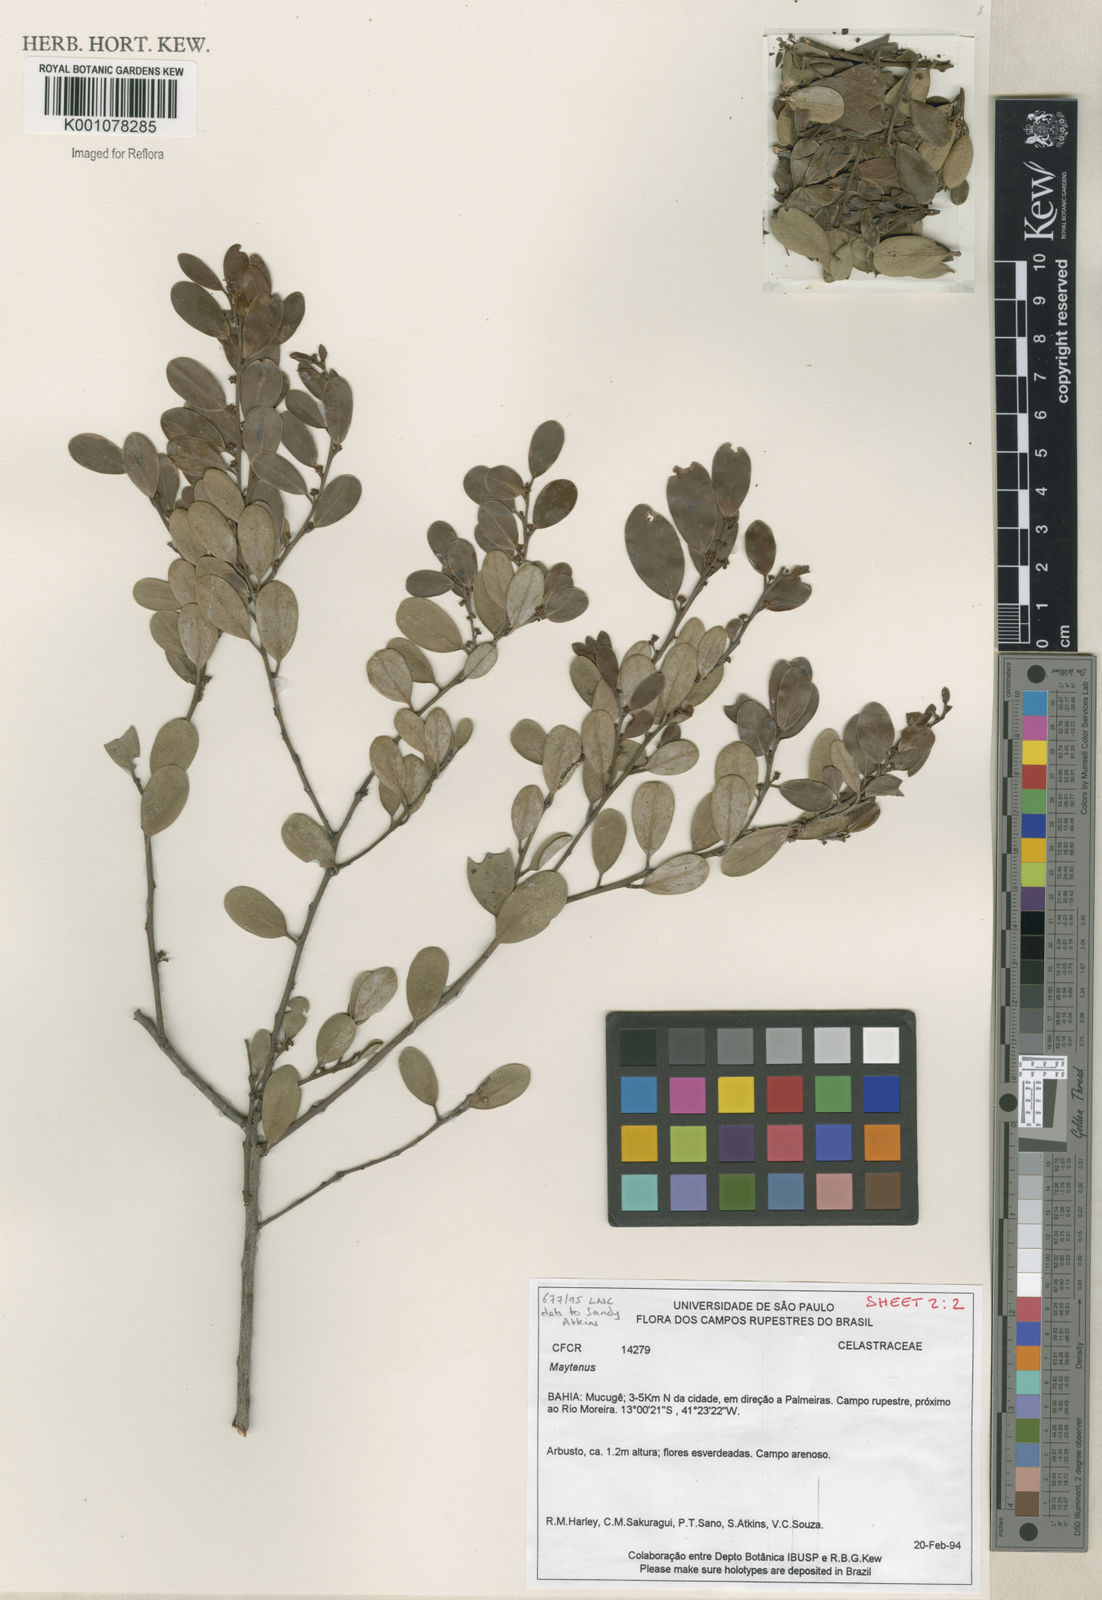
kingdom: Plantae
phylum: Tracheophyta
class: Magnoliopsida
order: Celastrales
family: Celastraceae
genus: Maytenus
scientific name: Maytenus
